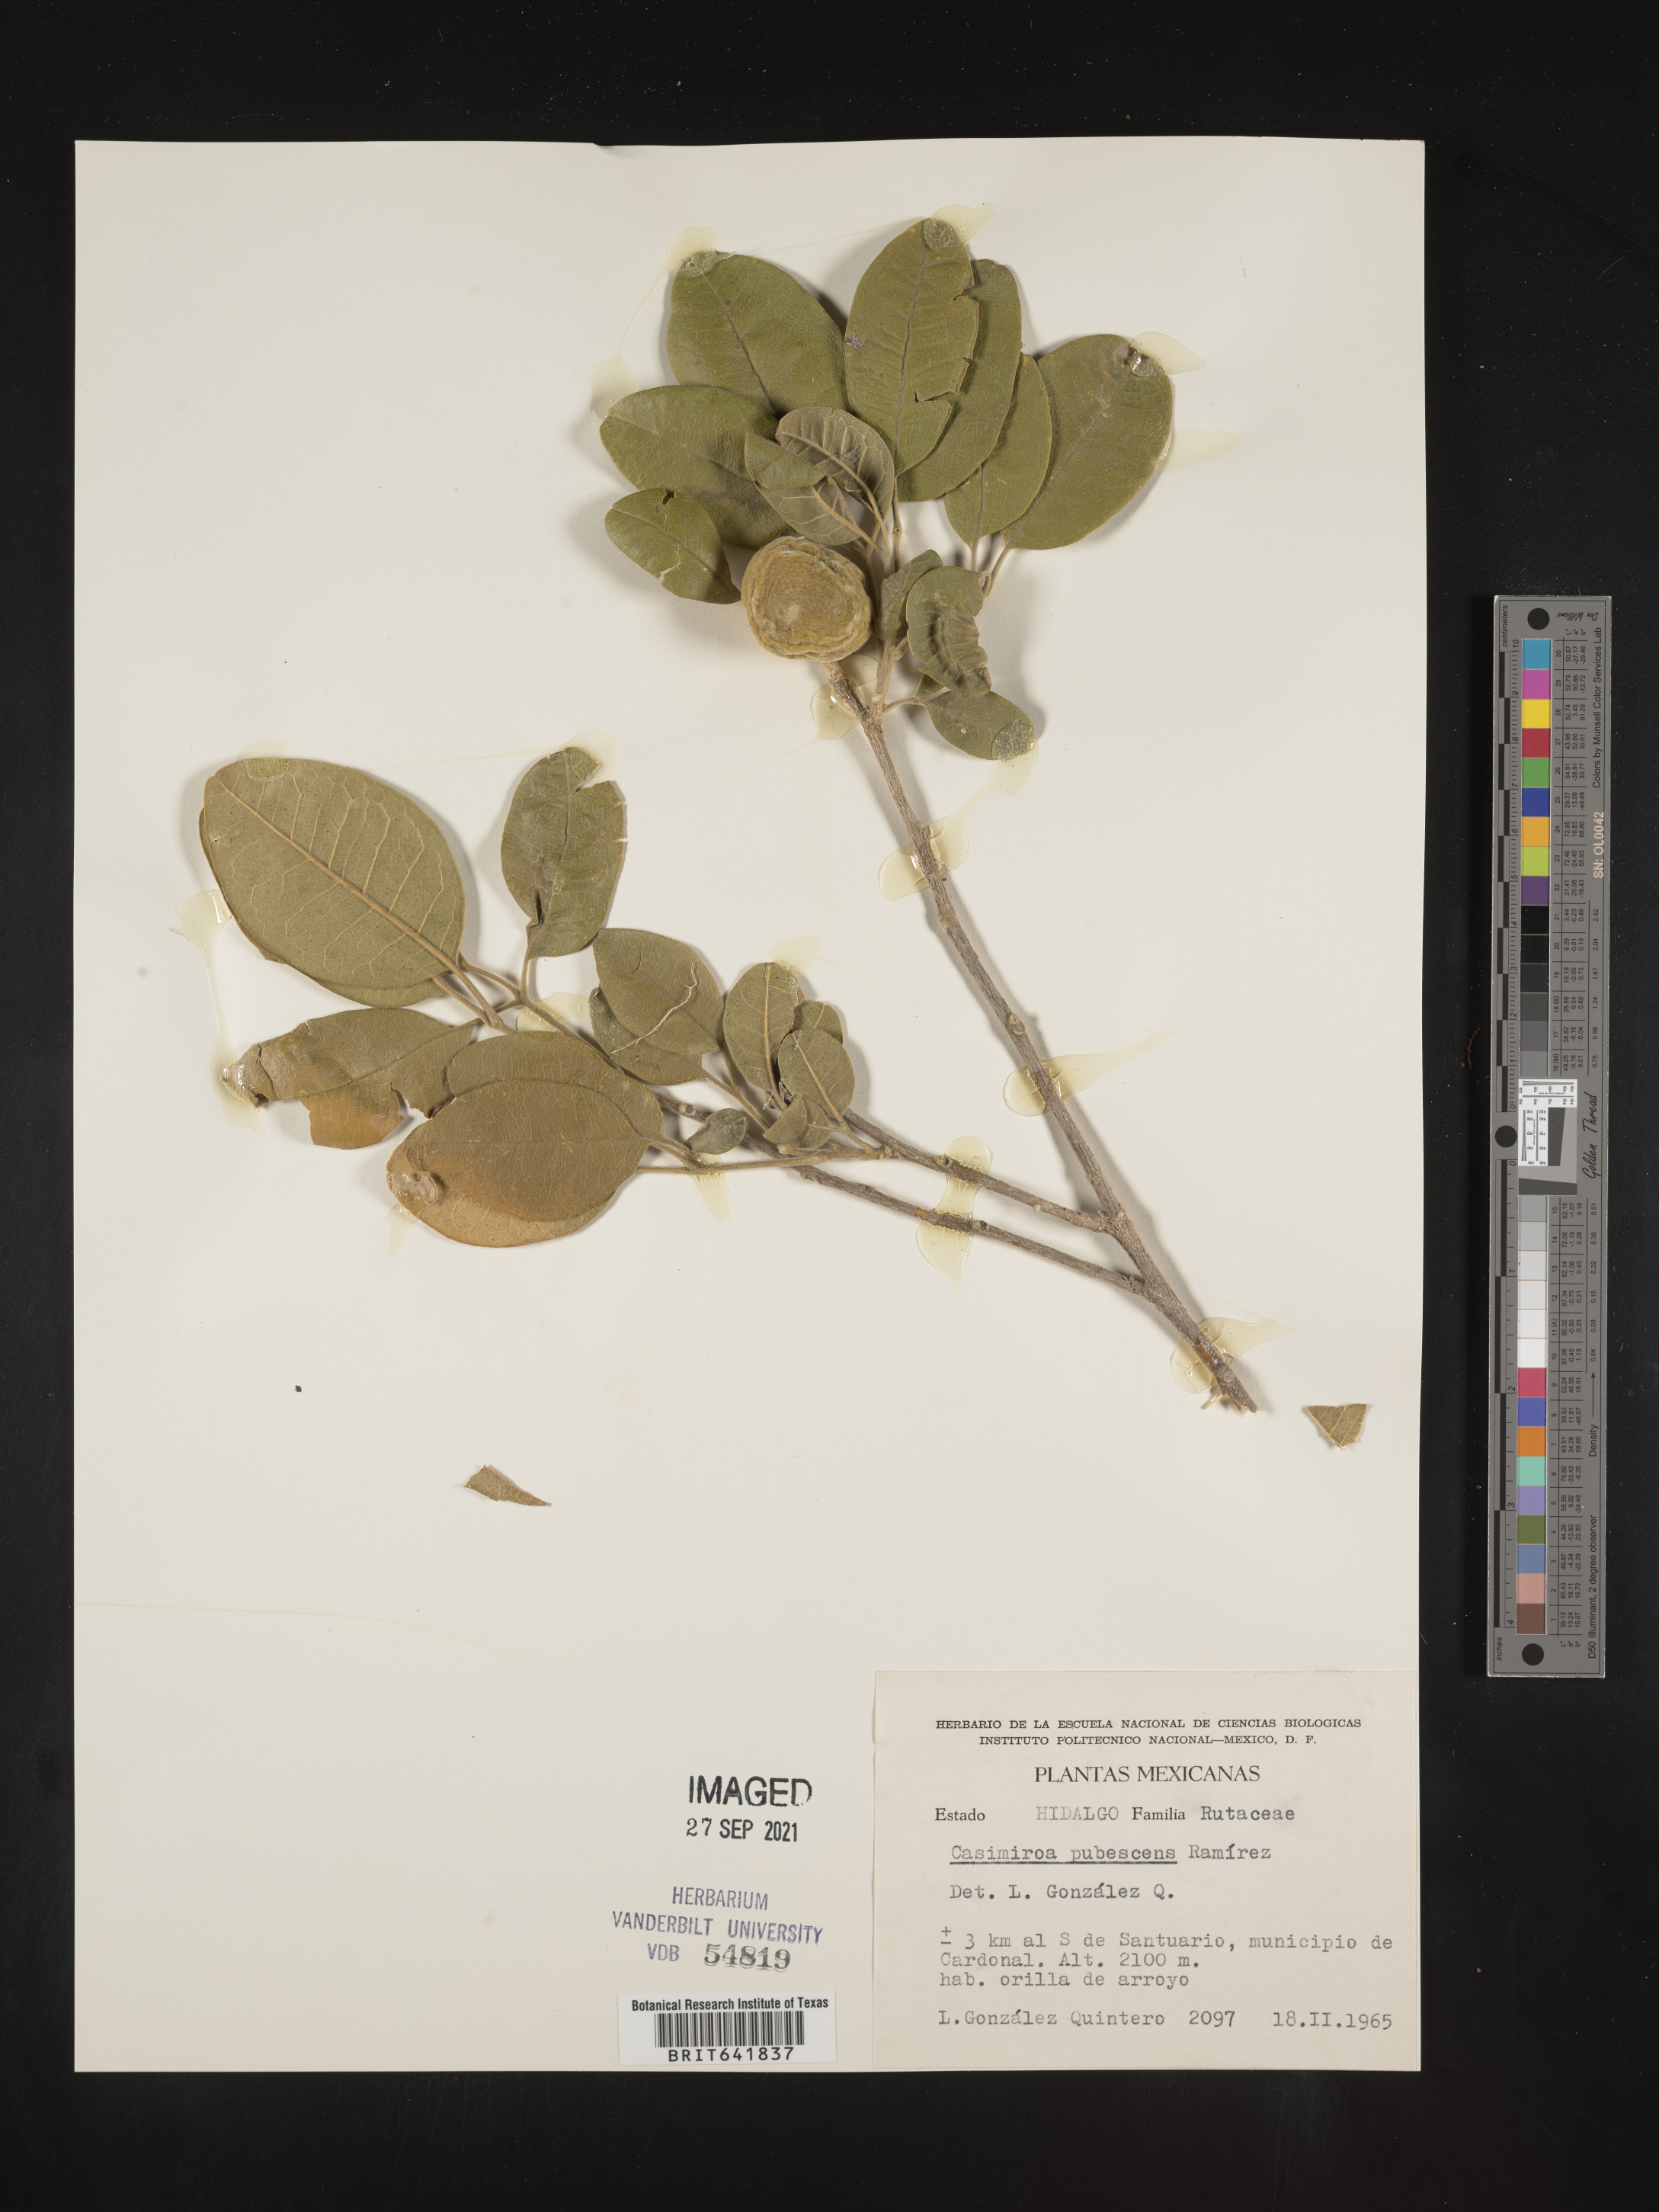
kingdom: Plantae
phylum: Tracheophyta
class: Magnoliopsida
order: Sapindales
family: Rutaceae
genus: Casimiroa
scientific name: Casimiroa
